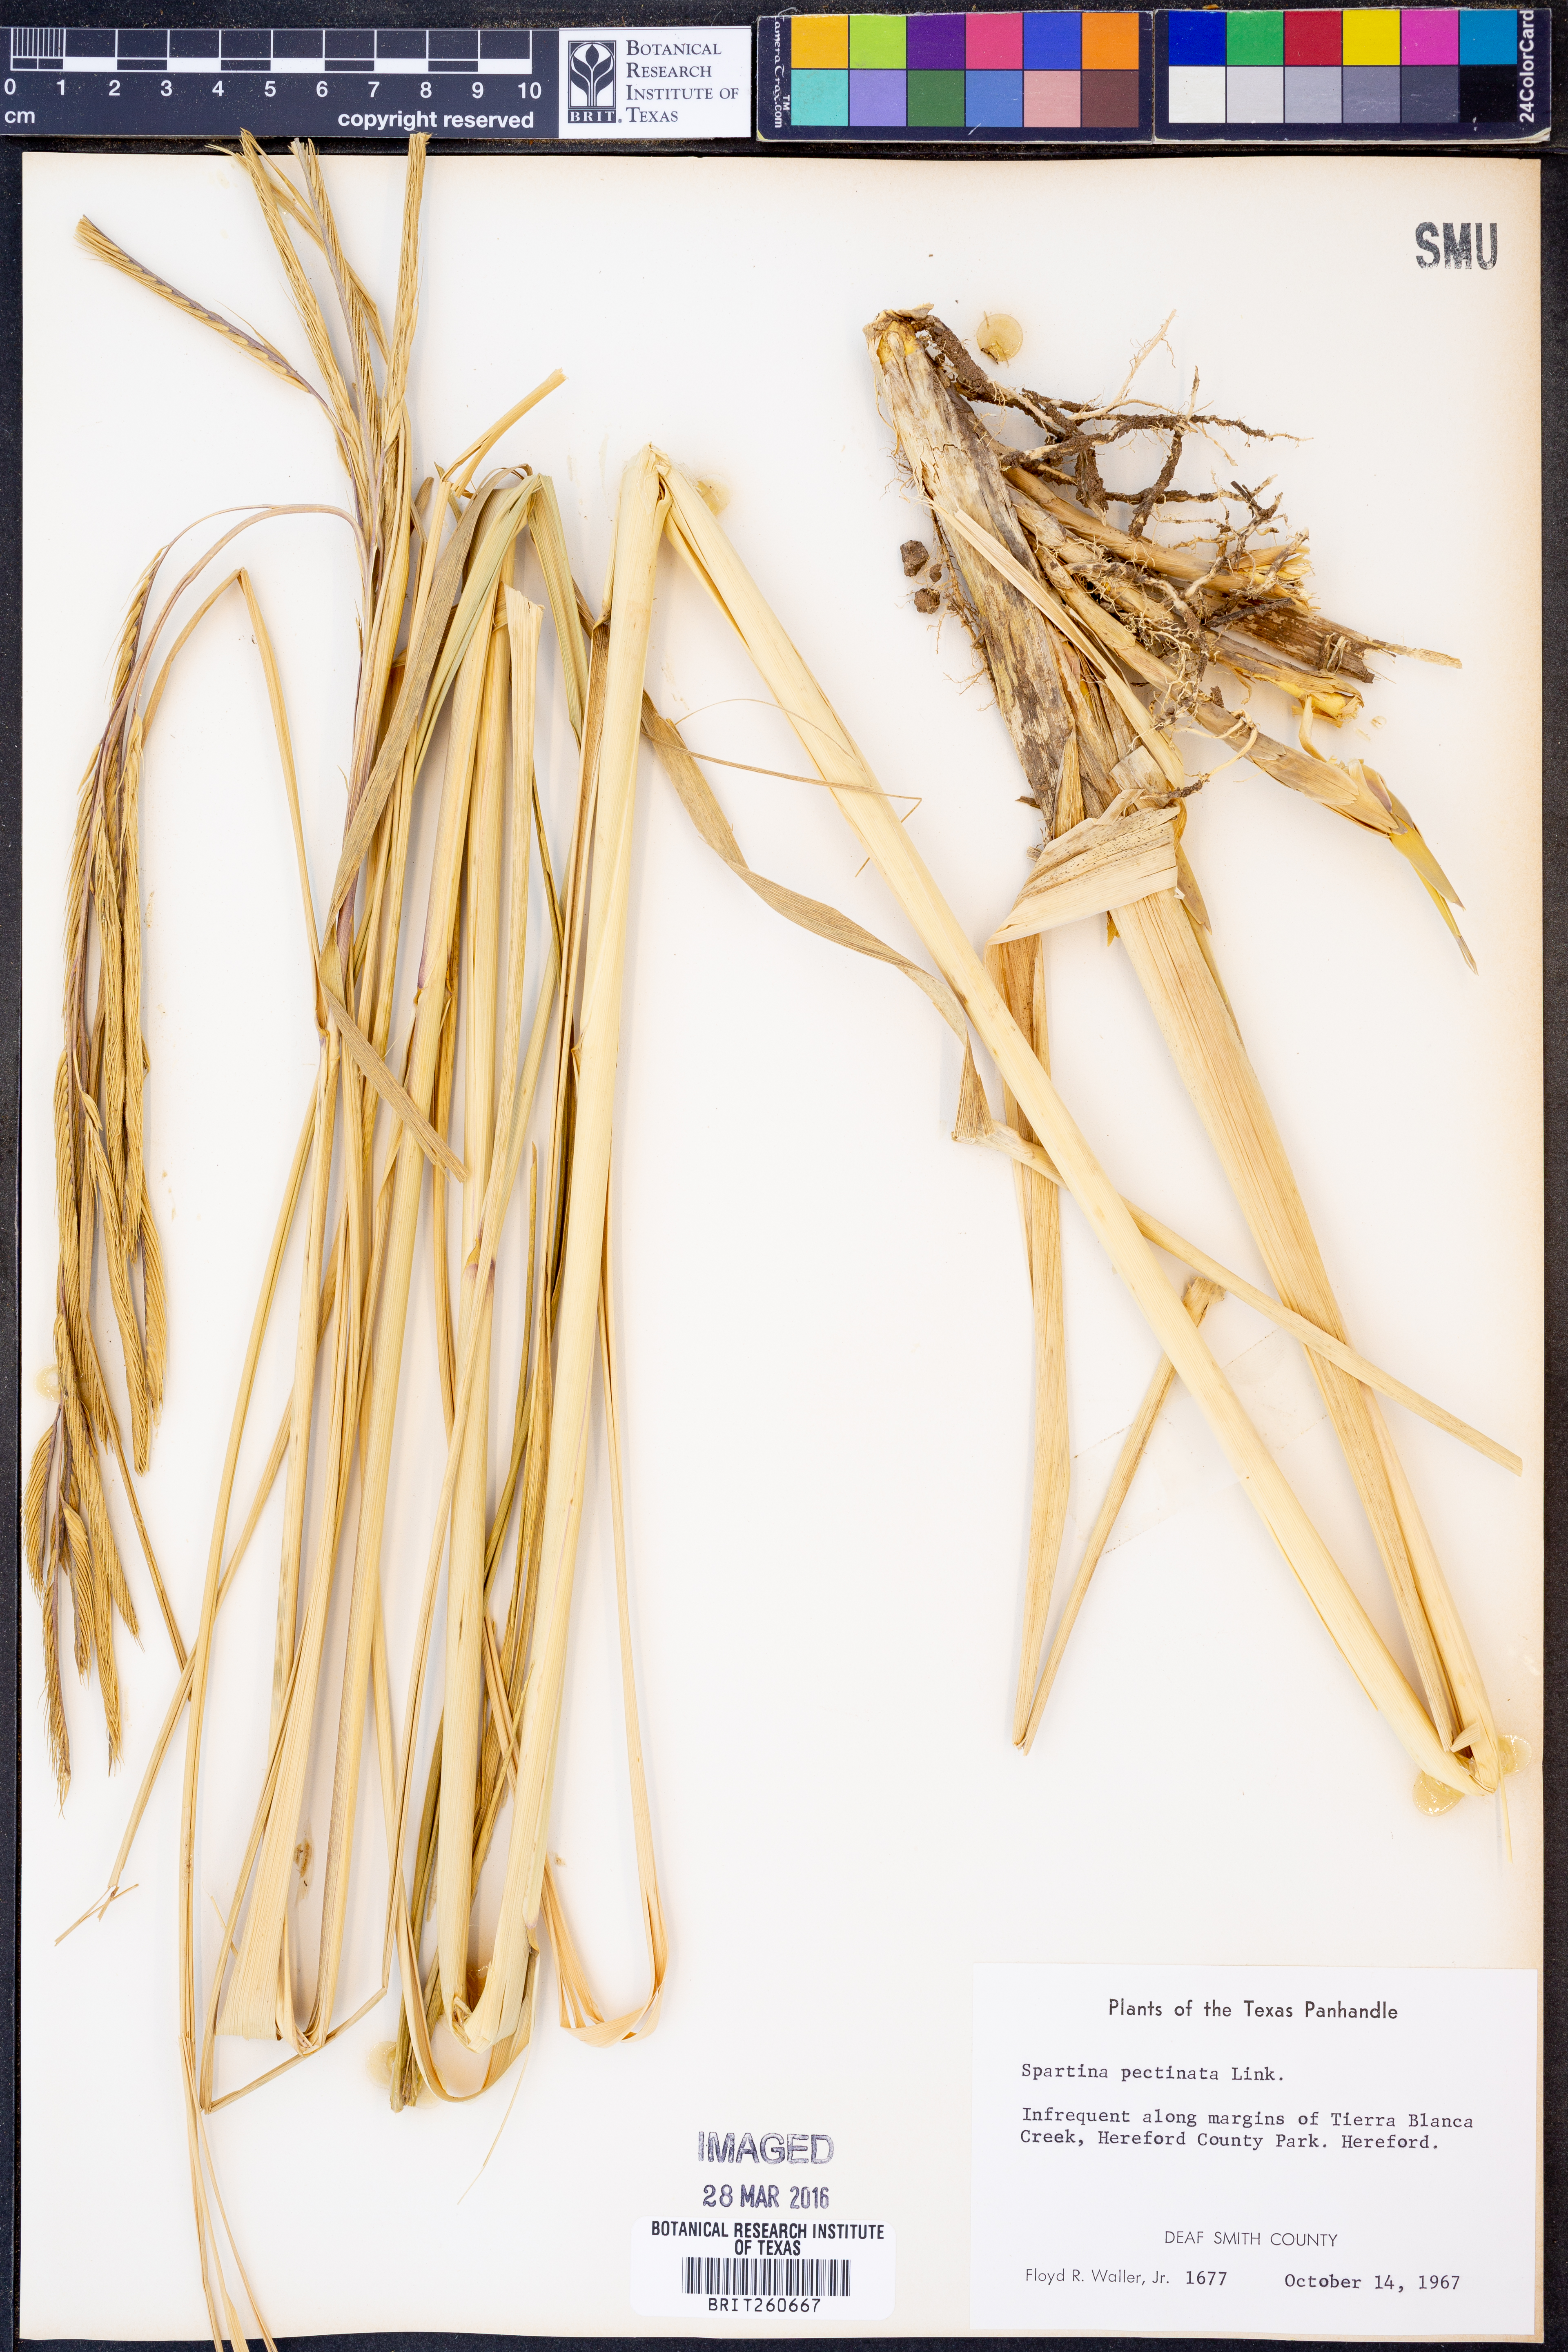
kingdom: Plantae
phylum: Tracheophyta
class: Liliopsida
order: Poales
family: Poaceae
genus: Sporobolus
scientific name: Sporobolus michauxianus
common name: Freshwater cordgrass
